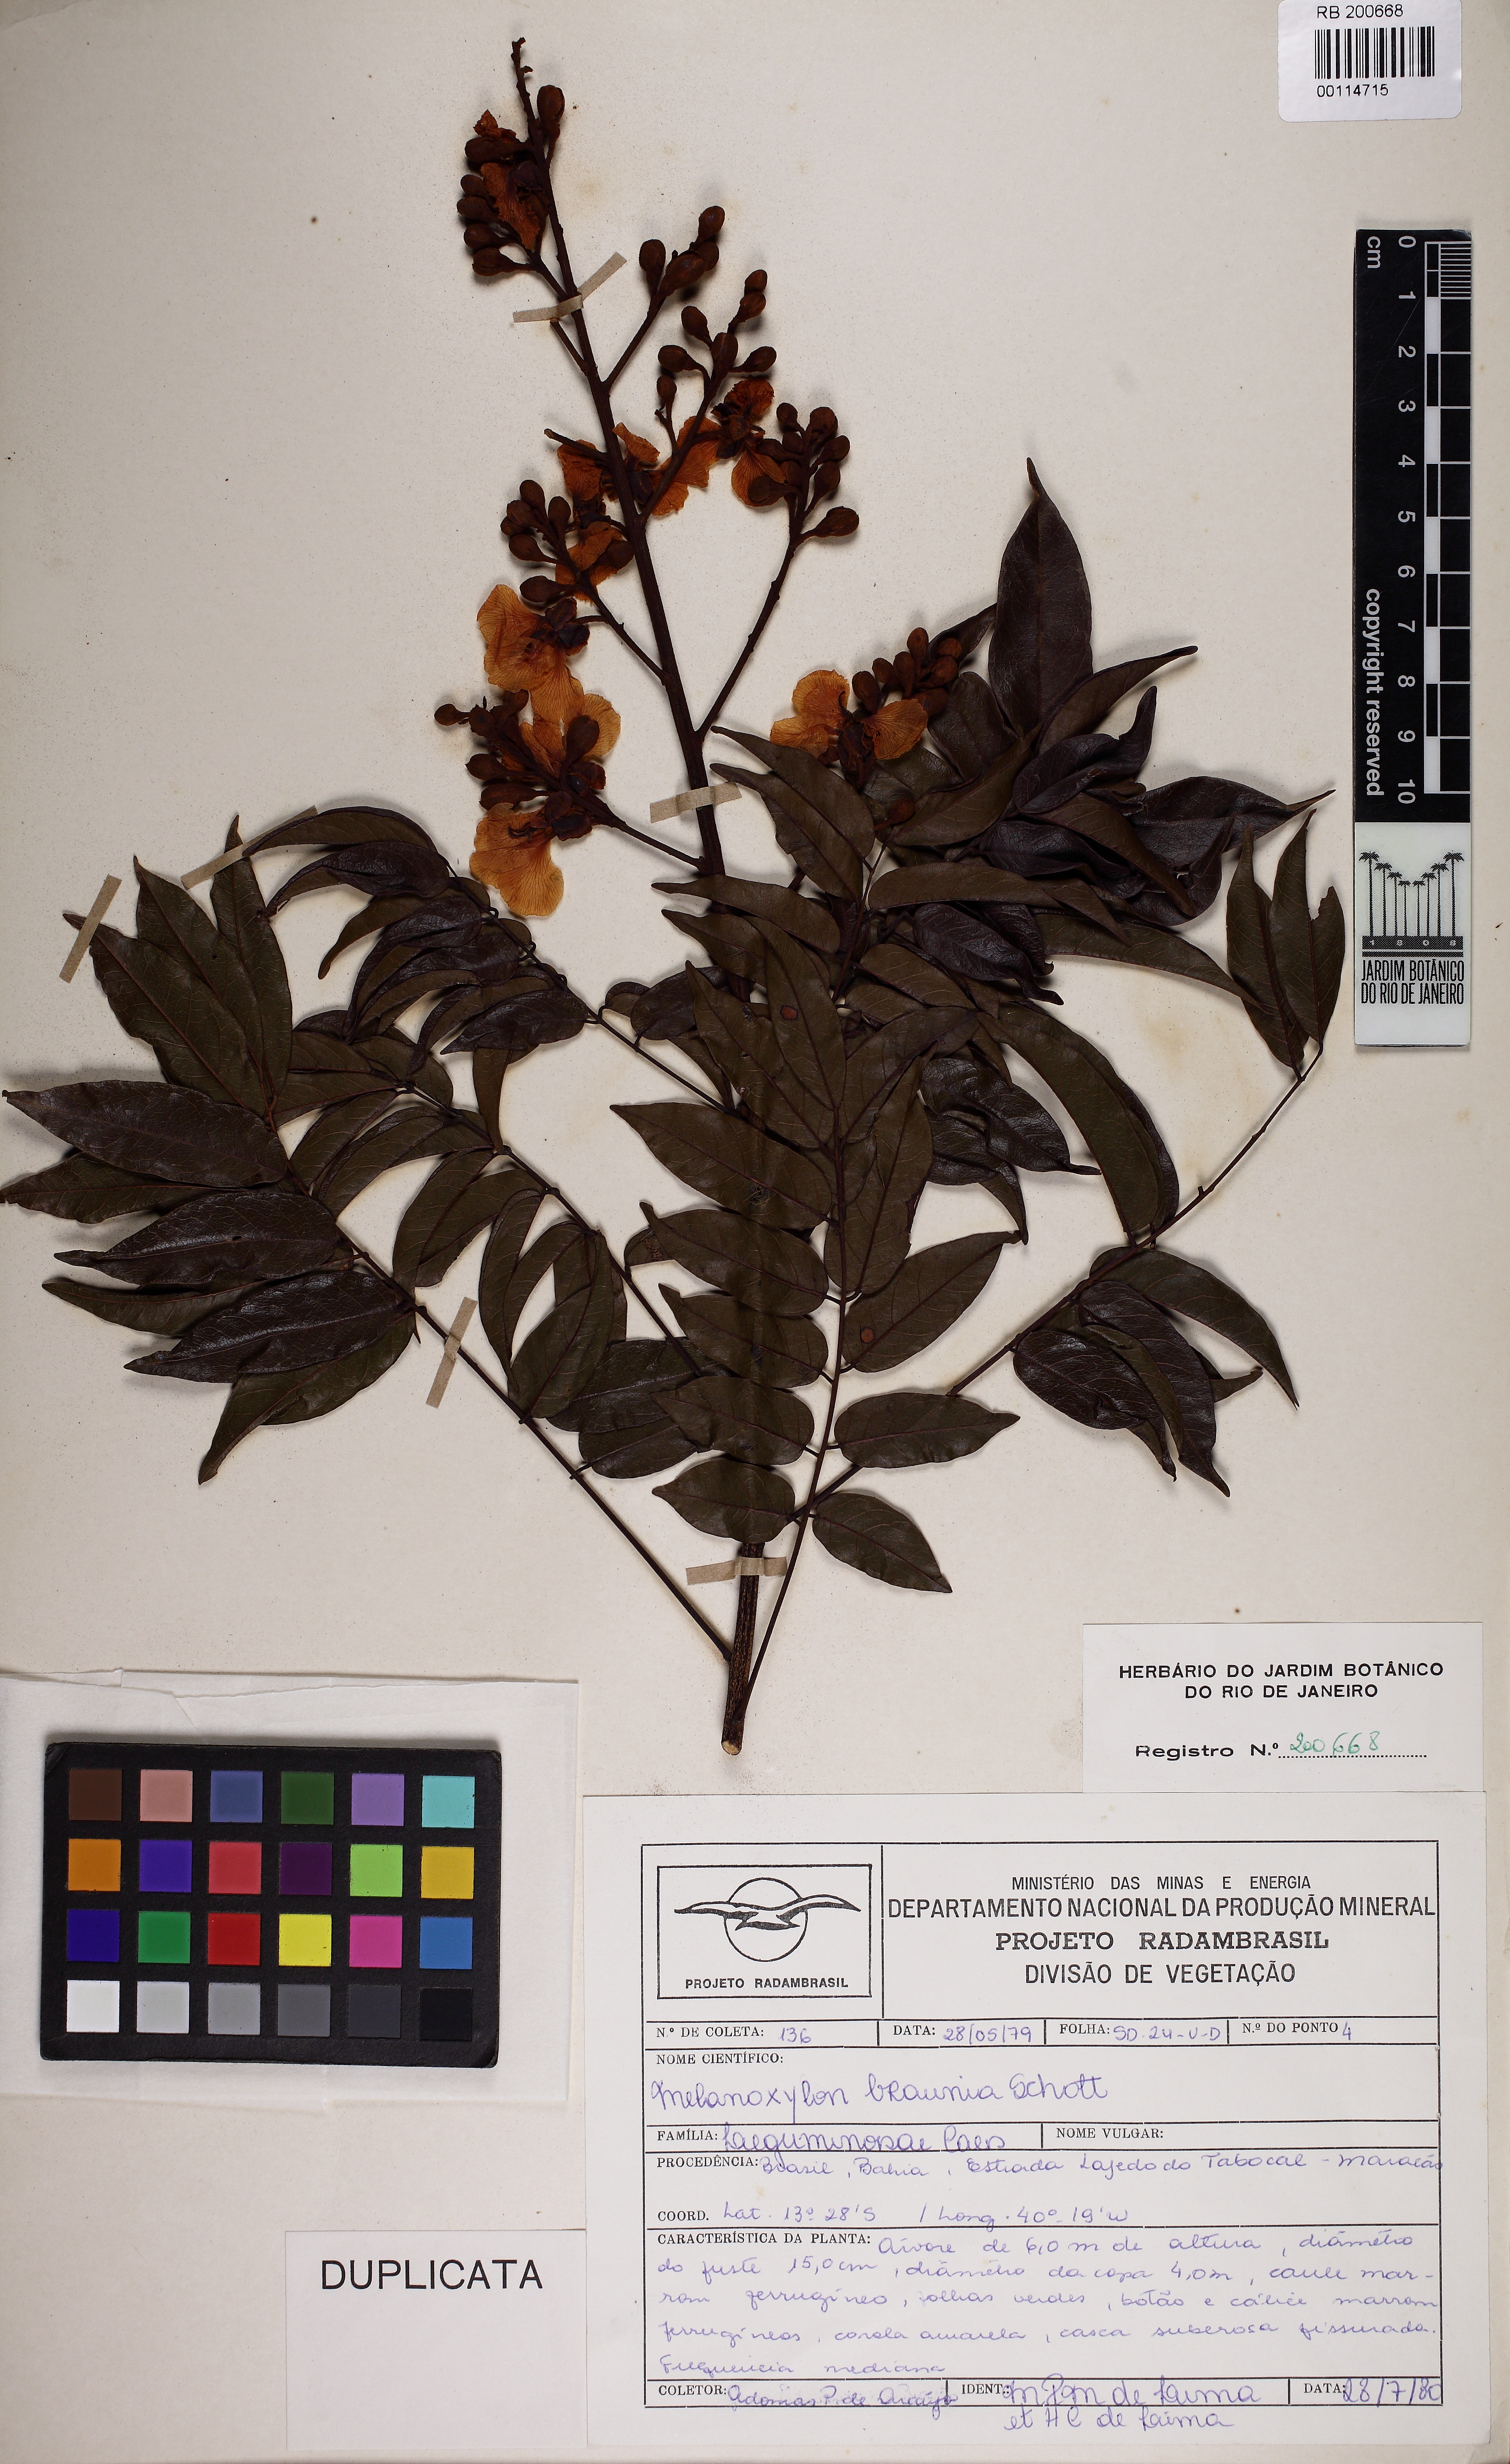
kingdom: Plantae
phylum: Tracheophyta
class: Magnoliopsida
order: Fabales
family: Fabaceae
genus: Melanoxylon
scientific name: Melanoxylon brauna
